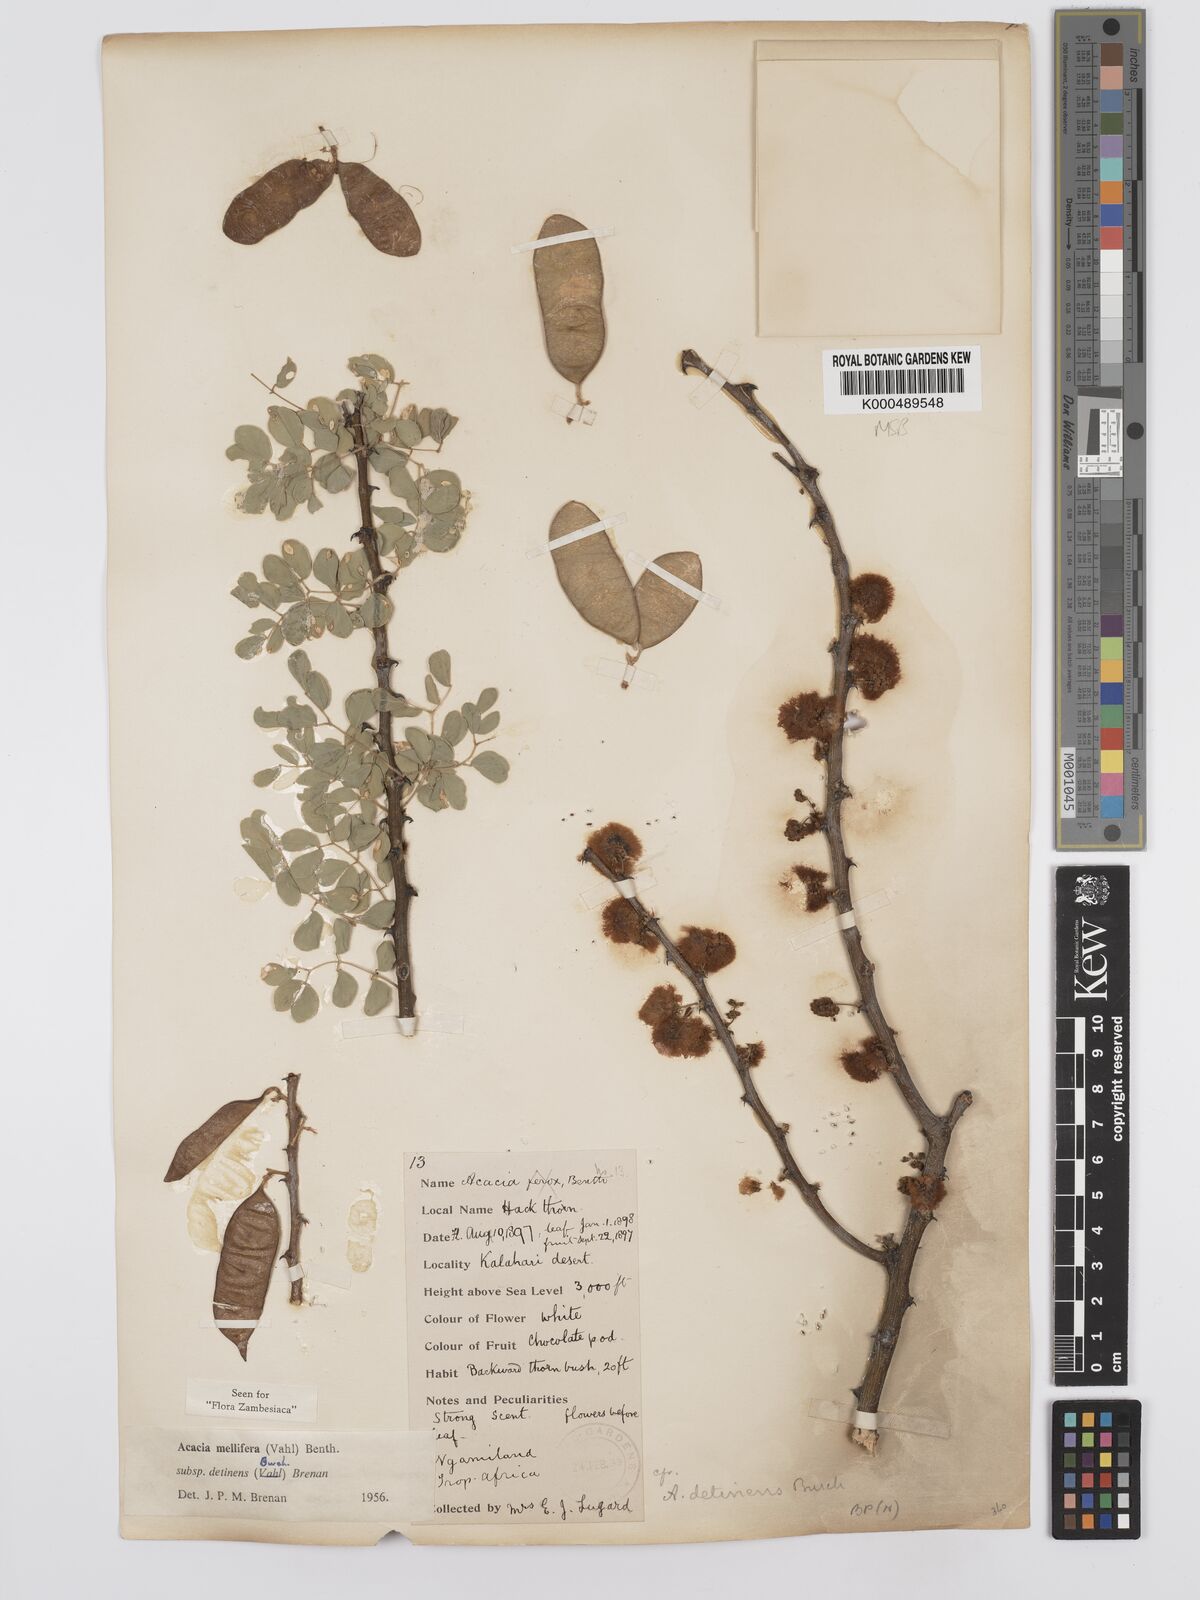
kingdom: Plantae
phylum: Tracheophyta
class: Magnoliopsida
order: Fabales
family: Fabaceae
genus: Senegalia
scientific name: Senegalia mellifera
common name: Hookthorn
